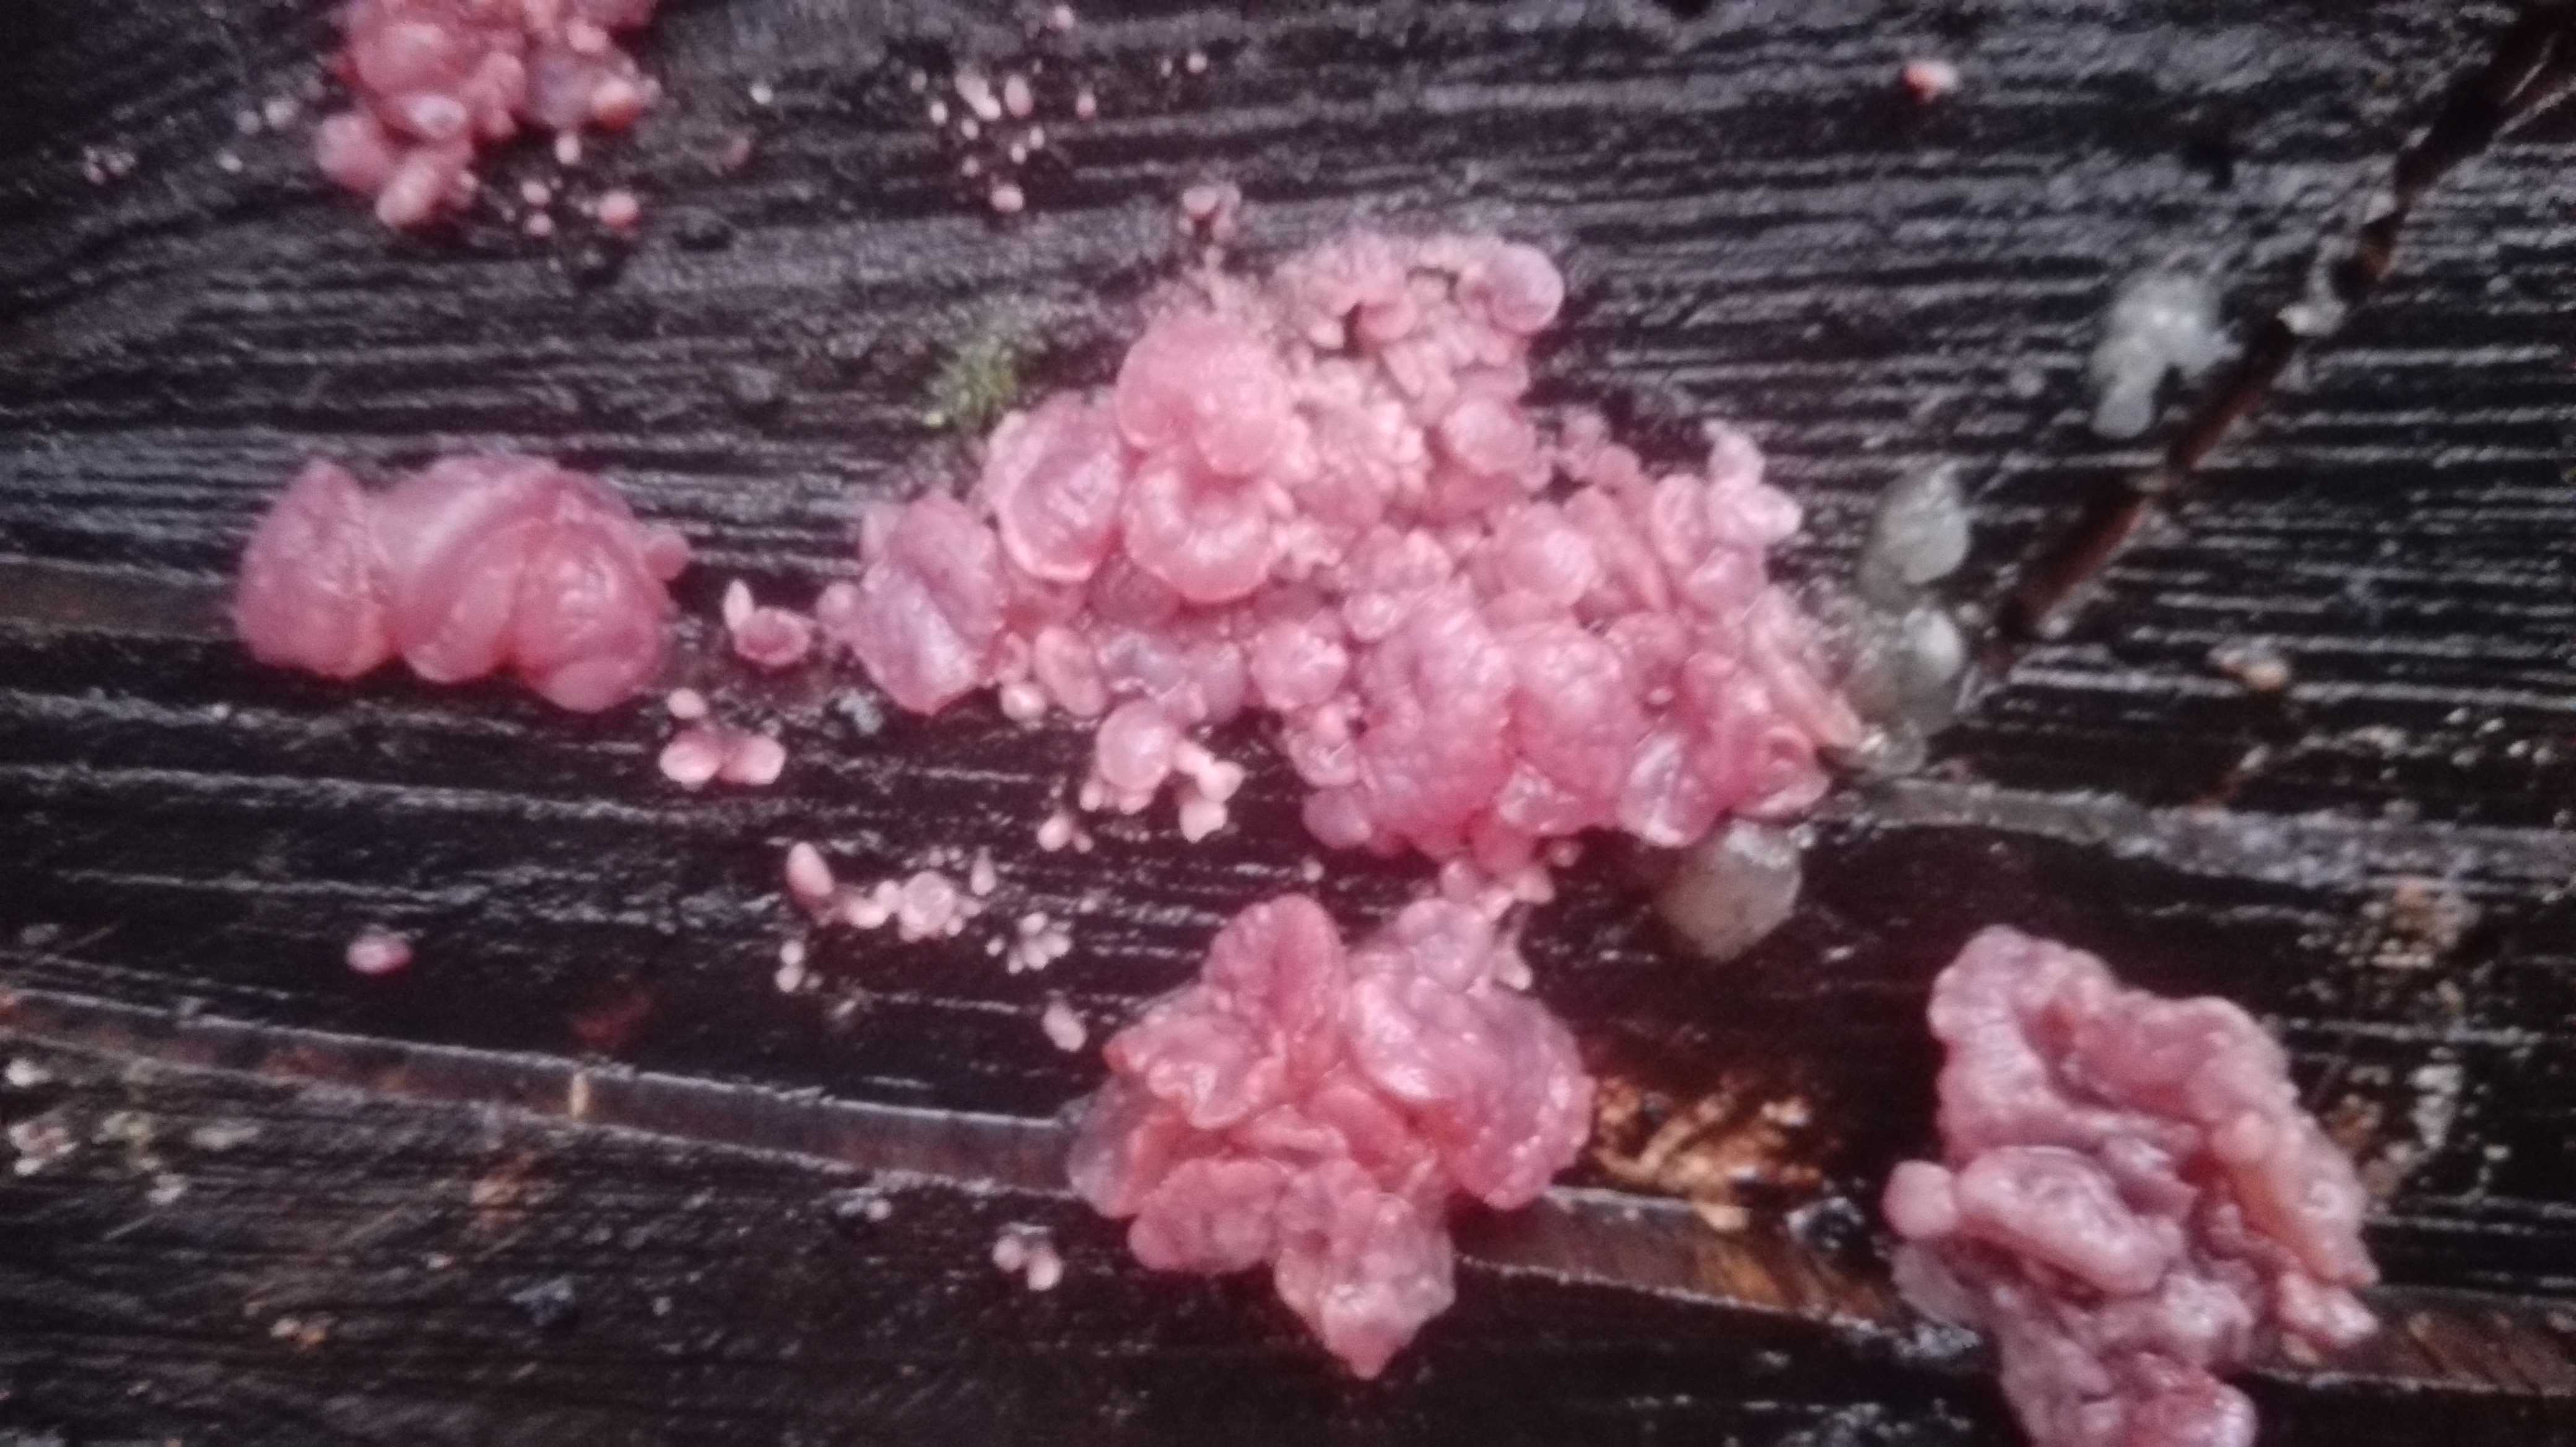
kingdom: Fungi
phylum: Ascomycota
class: Leotiomycetes
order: Helotiales
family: Gelatinodiscaceae
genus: Ascocoryne
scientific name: Ascocoryne sarcoides
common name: rødlilla sejskive
